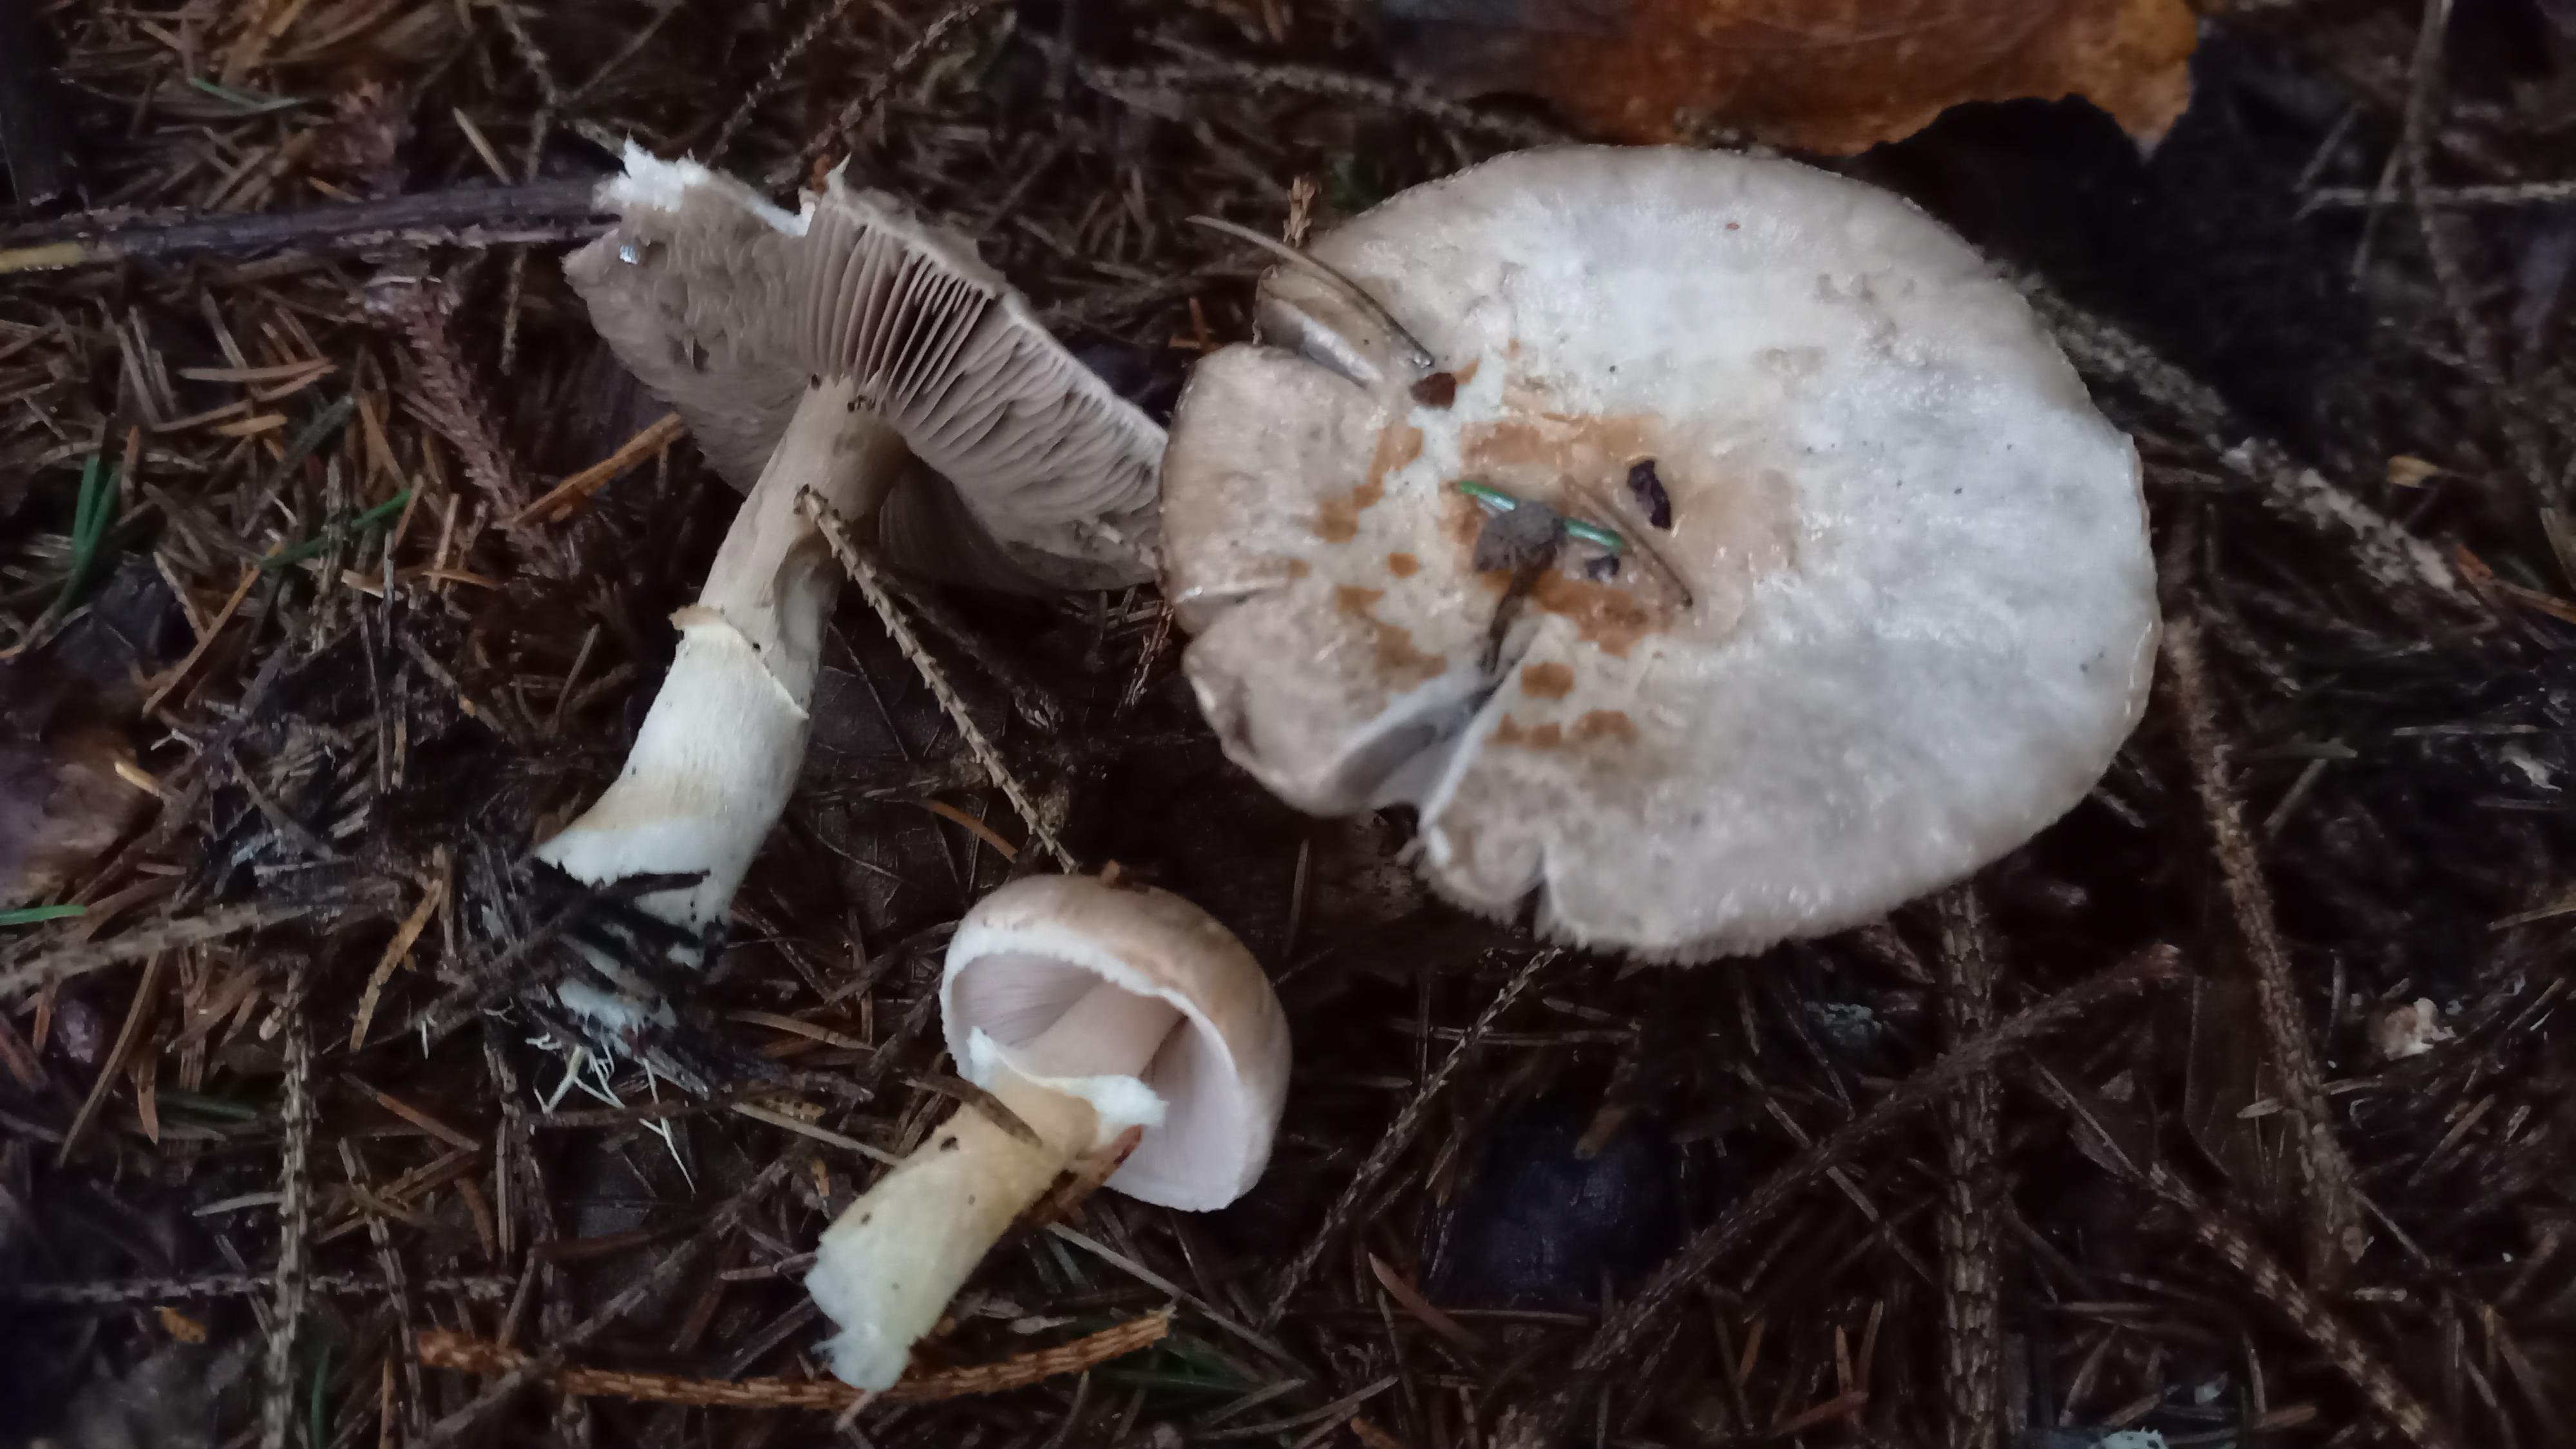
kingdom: Fungi
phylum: Basidiomycota
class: Agaricomycetes
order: Agaricales
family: Agaricaceae
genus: Agaricus
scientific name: Agaricus
